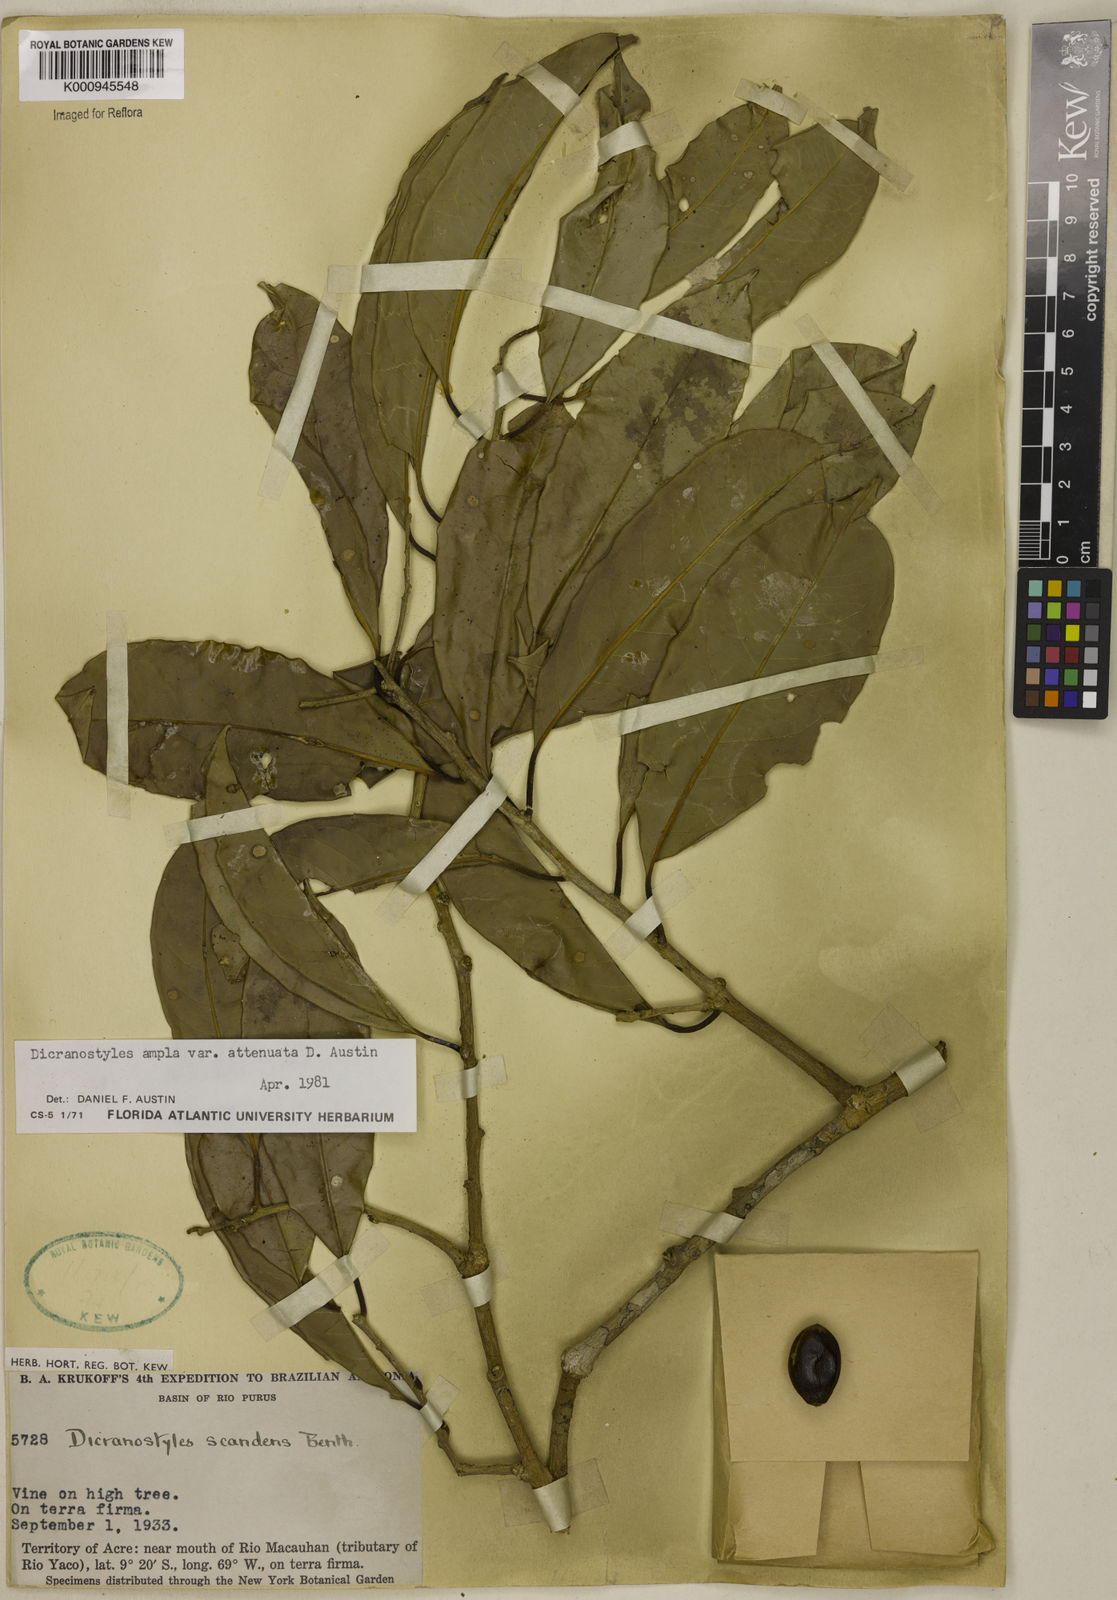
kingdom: Plantae
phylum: Tracheophyta
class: Magnoliopsida
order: Solanales
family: Convolvulaceae
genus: Dicranostyles
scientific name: Dicranostyles ampla
